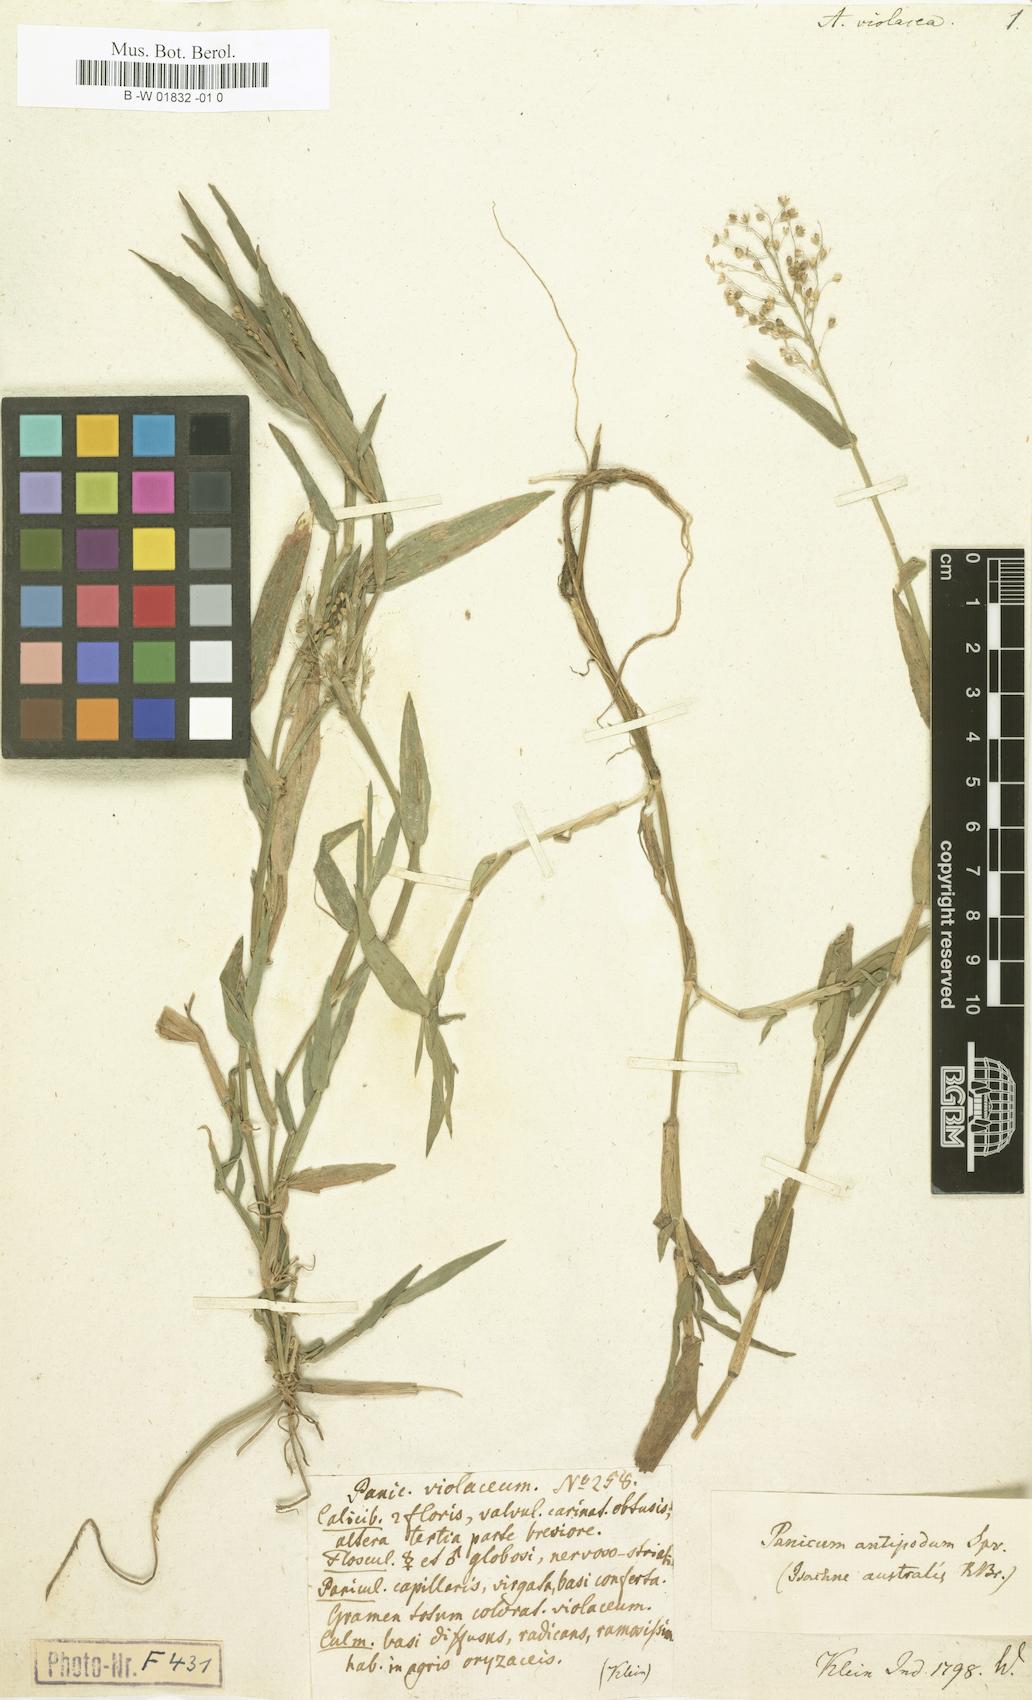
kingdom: Plantae
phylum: Tracheophyta
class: Liliopsida
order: Poales
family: Poaceae
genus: Isachne
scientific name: Isachne globosa
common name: Swamp millet
